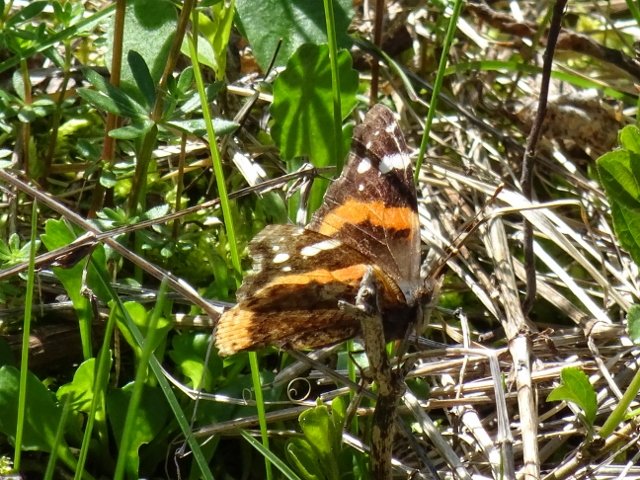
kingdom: Animalia
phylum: Arthropoda
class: Insecta
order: Lepidoptera
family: Nymphalidae
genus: Vanessa
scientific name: Vanessa atalanta
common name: Red Admiral
